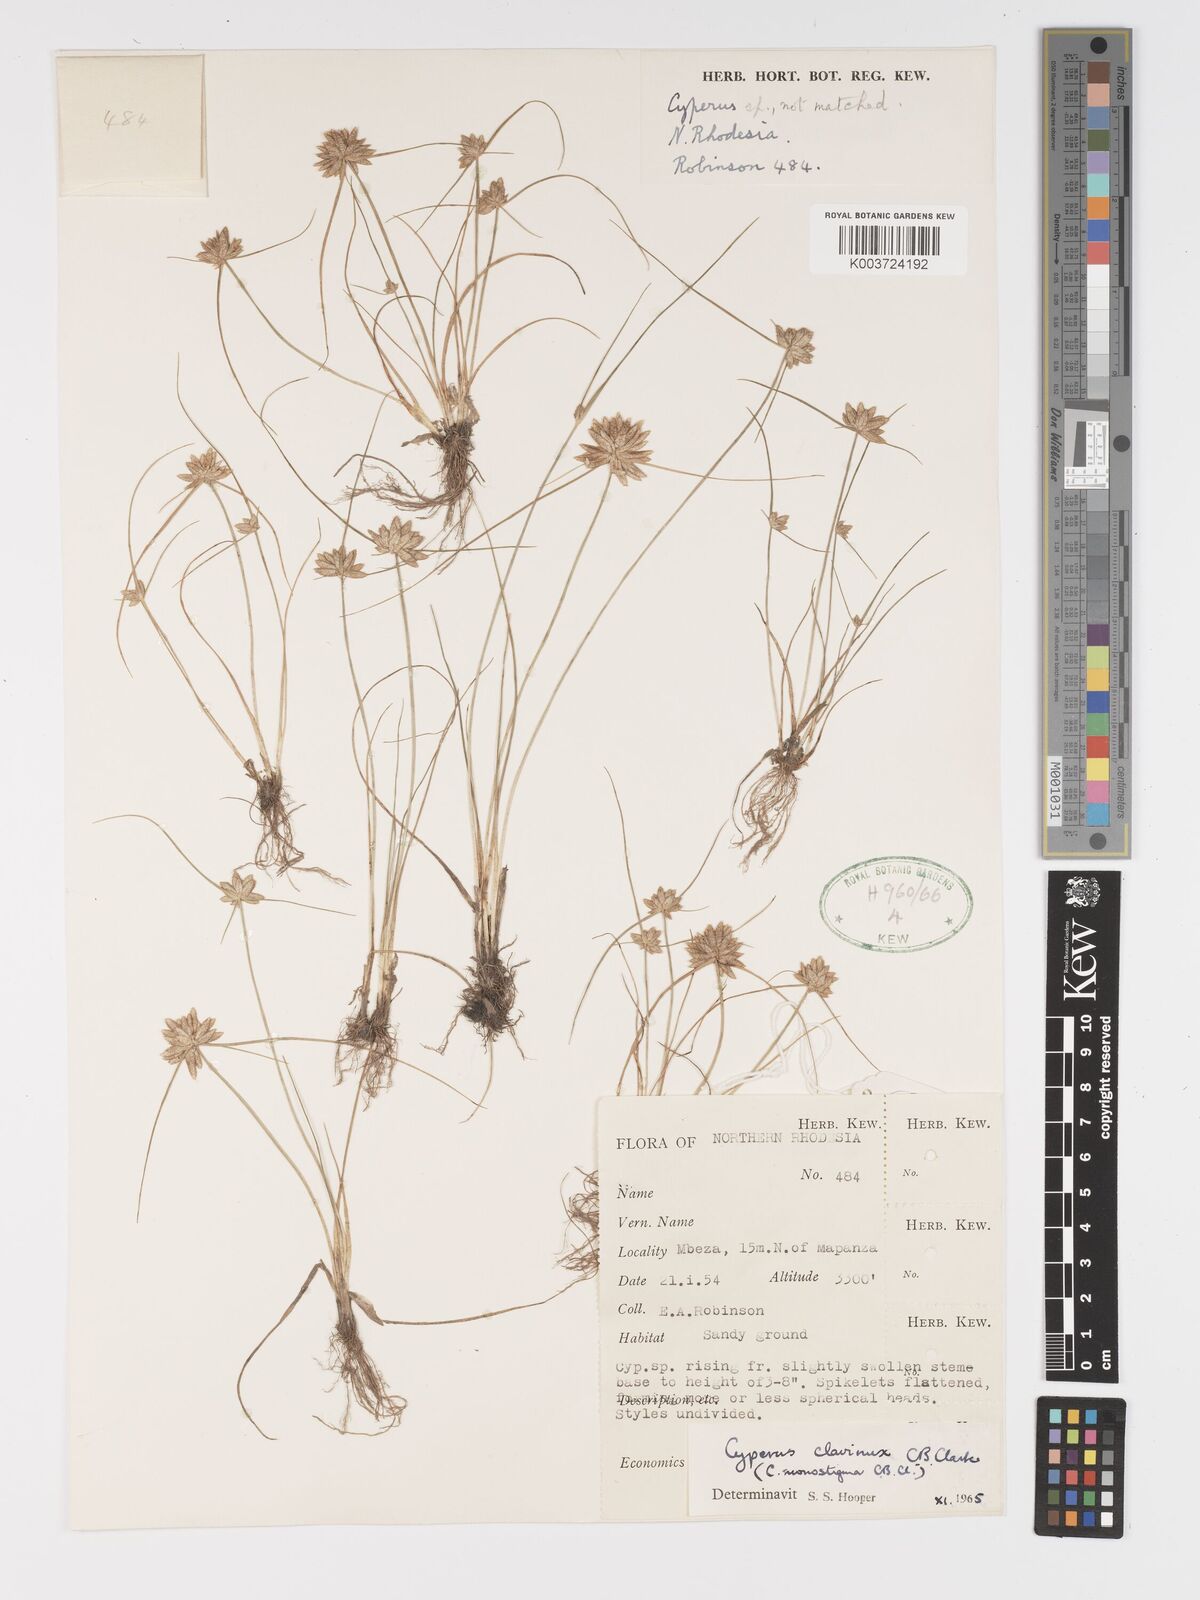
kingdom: Plantae
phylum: Tracheophyta
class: Liliopsida
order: Poales
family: Cyperaceae
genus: Cyperus
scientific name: Cyperus clavinux
